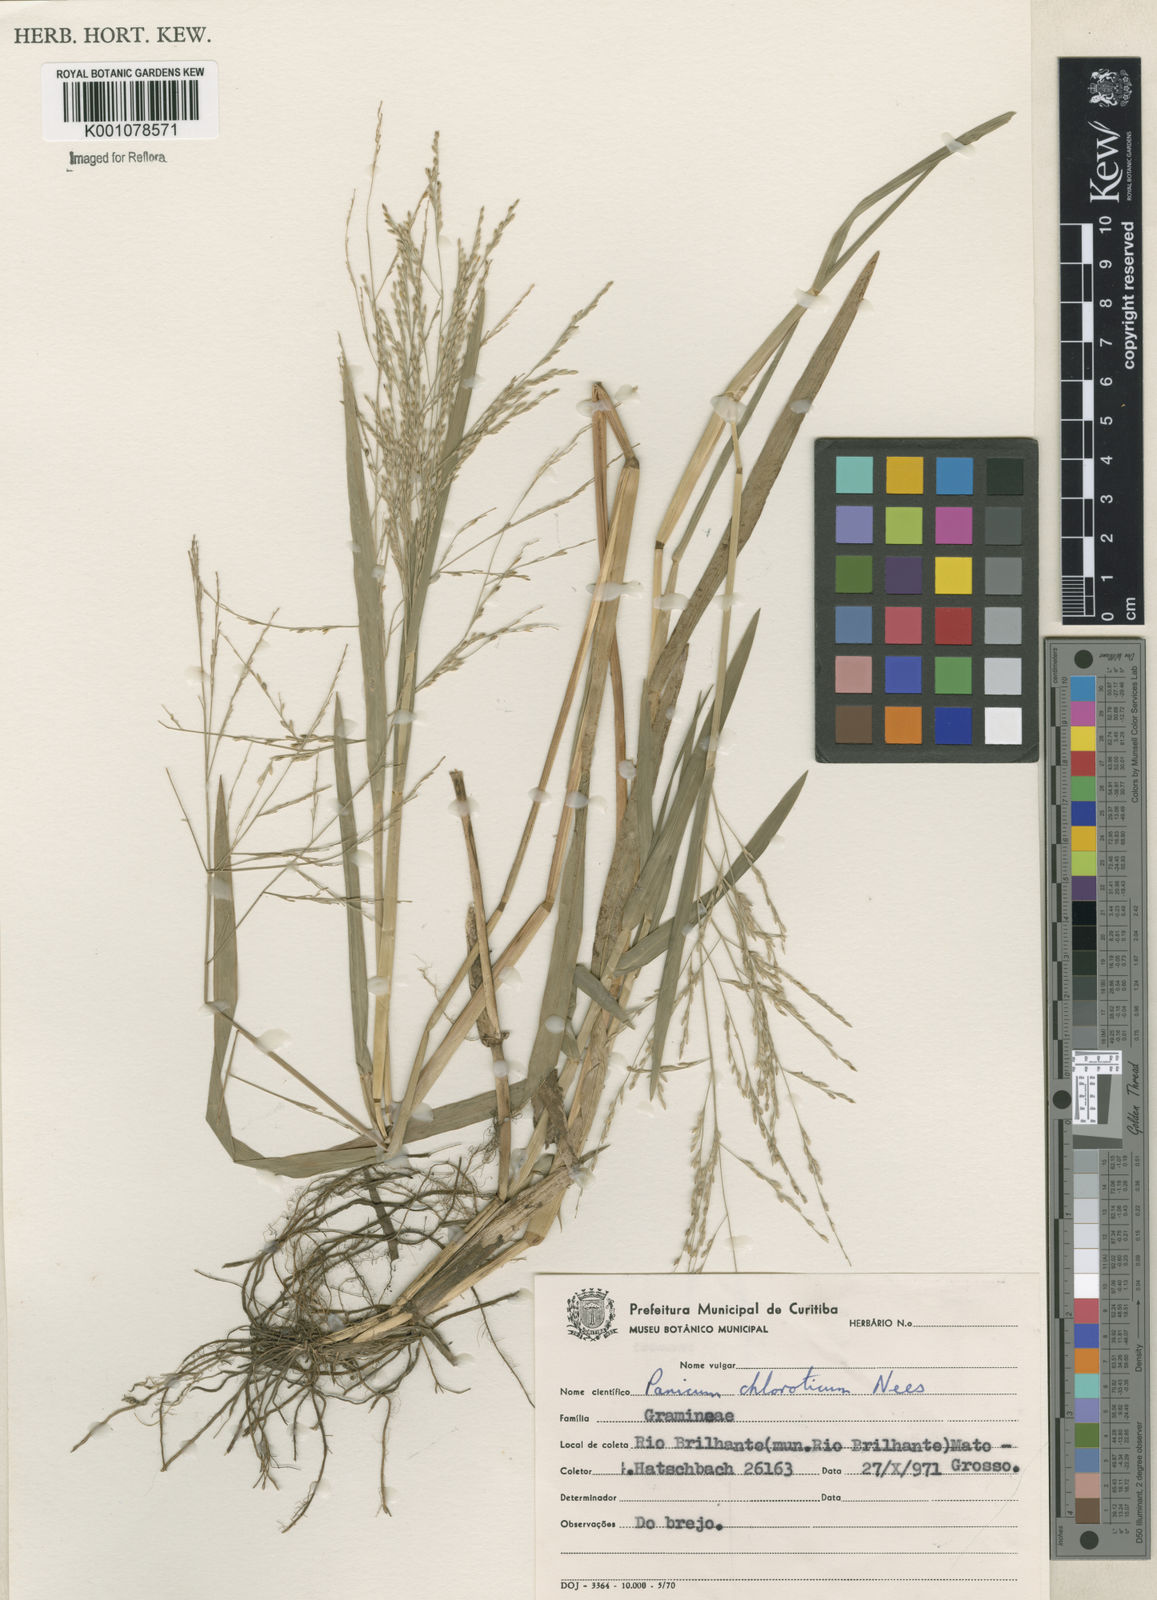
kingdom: Plantae
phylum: Tracheophyta
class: Liliopsida
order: Poales
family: Poaceae
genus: Panicum
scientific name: Panicum dichotomiflorum
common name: Autumn millet
